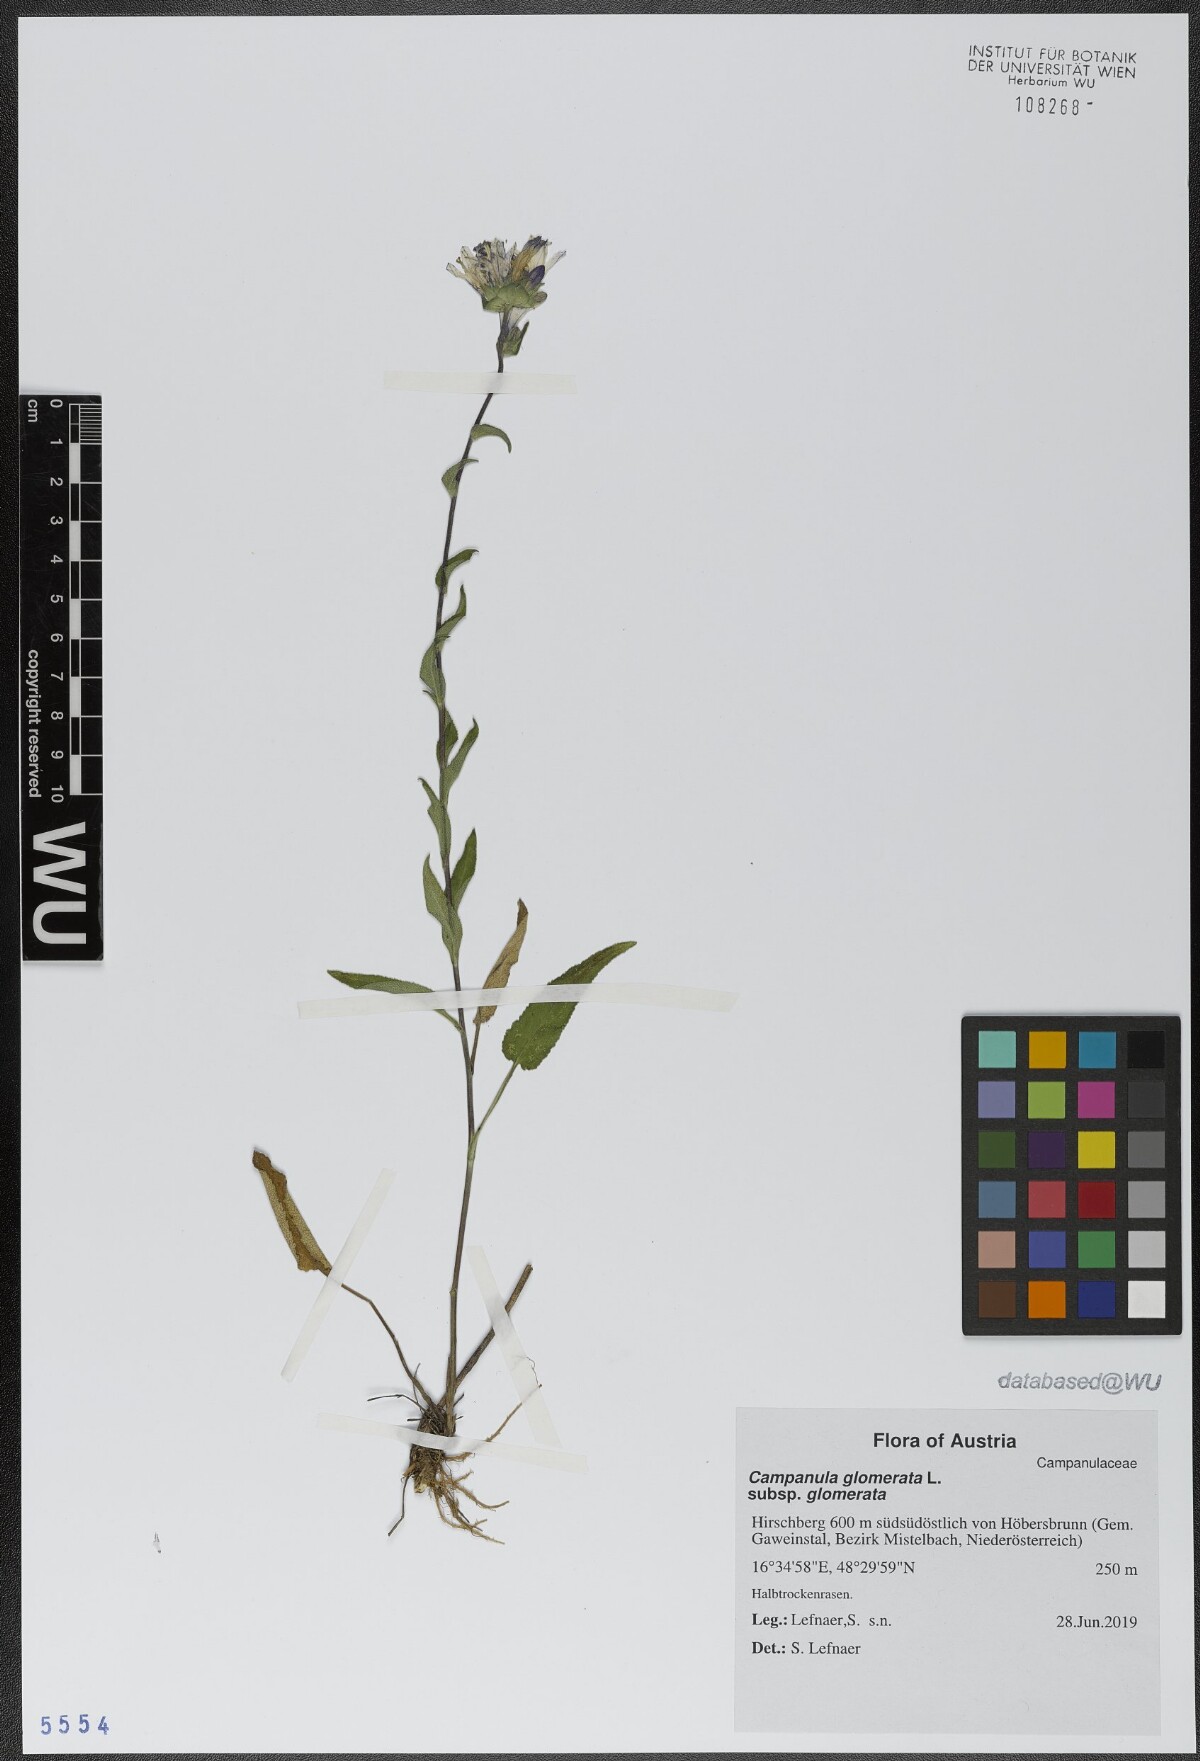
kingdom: Plantae
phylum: Tracheophyta
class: Magnoliopsida
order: Asterales
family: Campanulaceae
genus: Campanula
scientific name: Campanula glomerata
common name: Clustered bellflower
